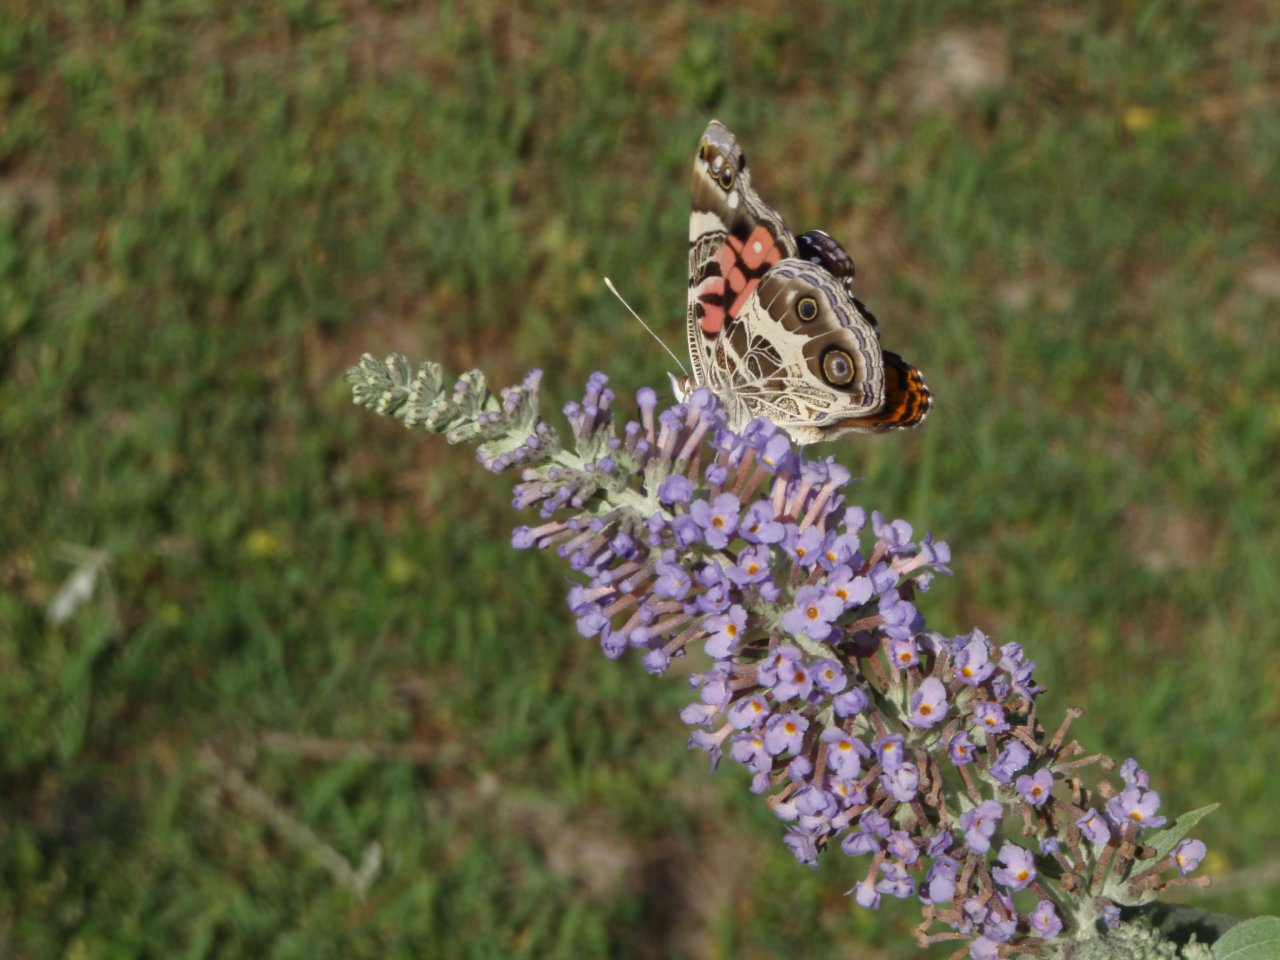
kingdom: Animalia
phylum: Arthropoda
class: Insecta
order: Lepidoptera
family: Nymphalidae
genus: Vanessa
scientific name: Vanessa virginiensis
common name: American Lady
